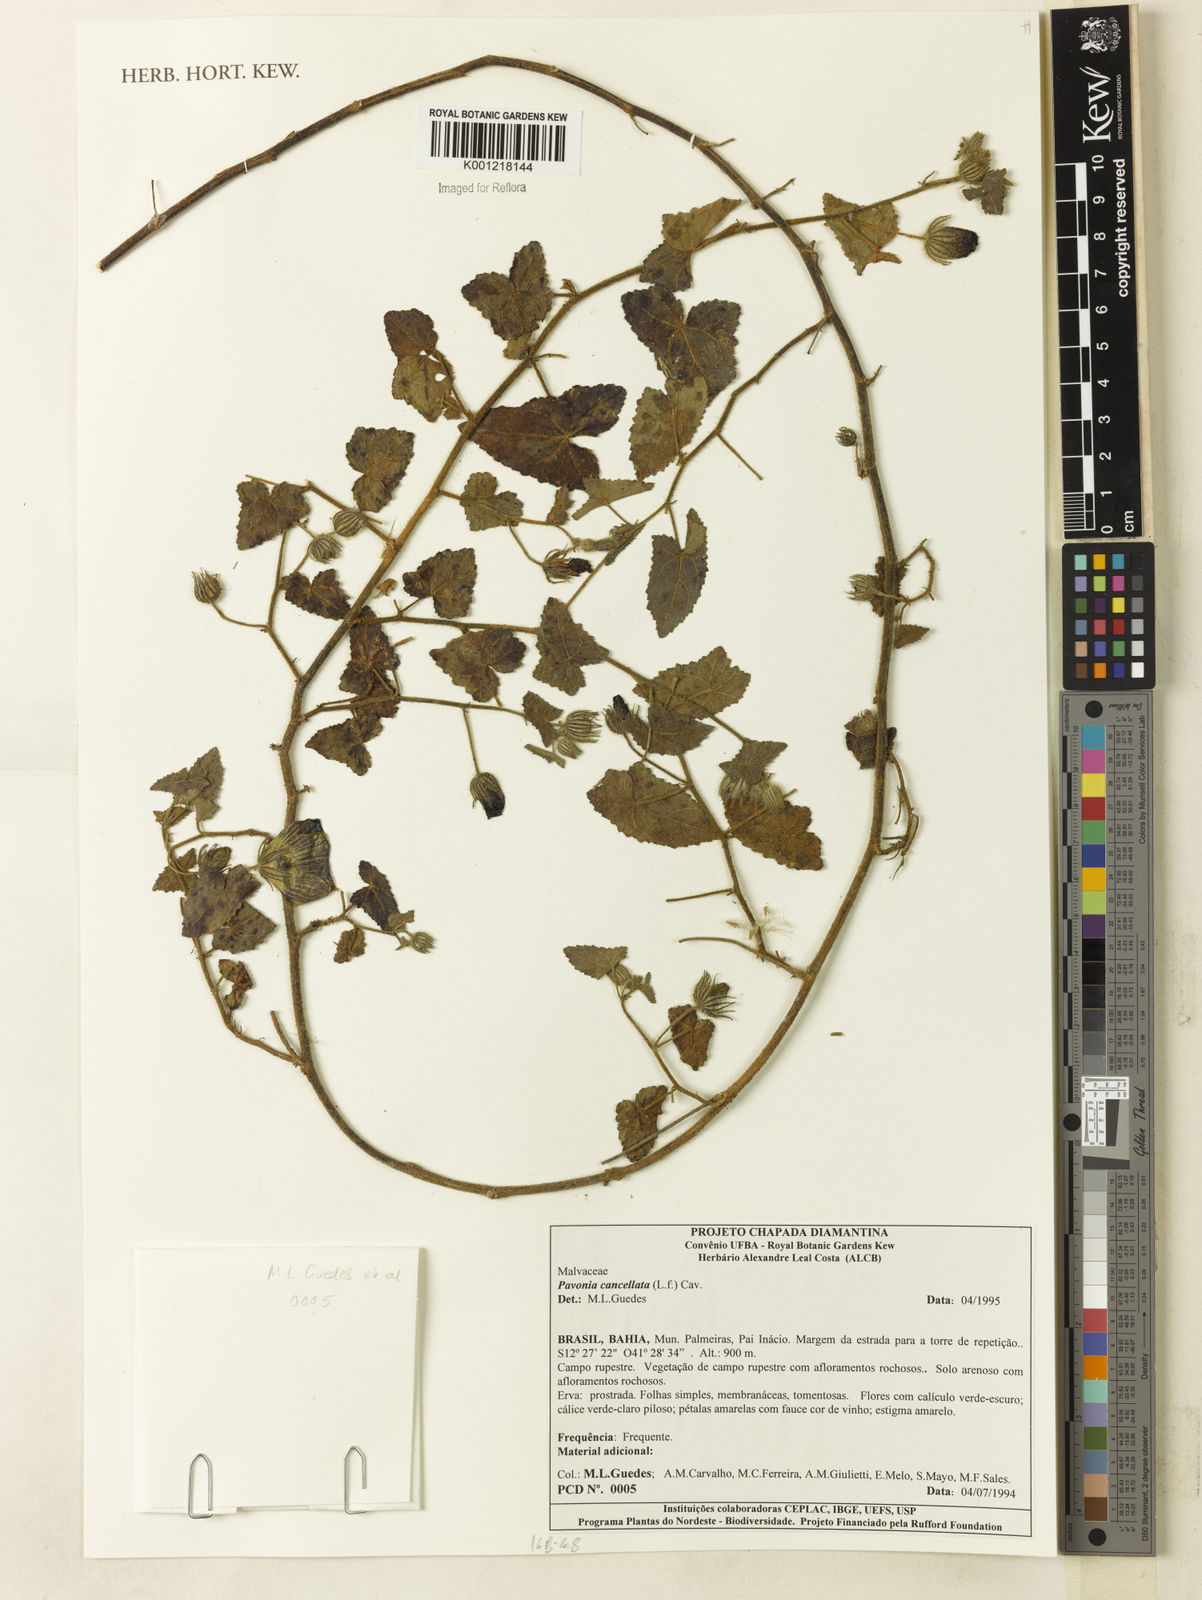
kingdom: Plantae
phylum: Tracheophyta
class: Magnoliopsida
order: Malvales
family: Malvaceae
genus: Pavonia
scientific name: Pavonia cancellata
